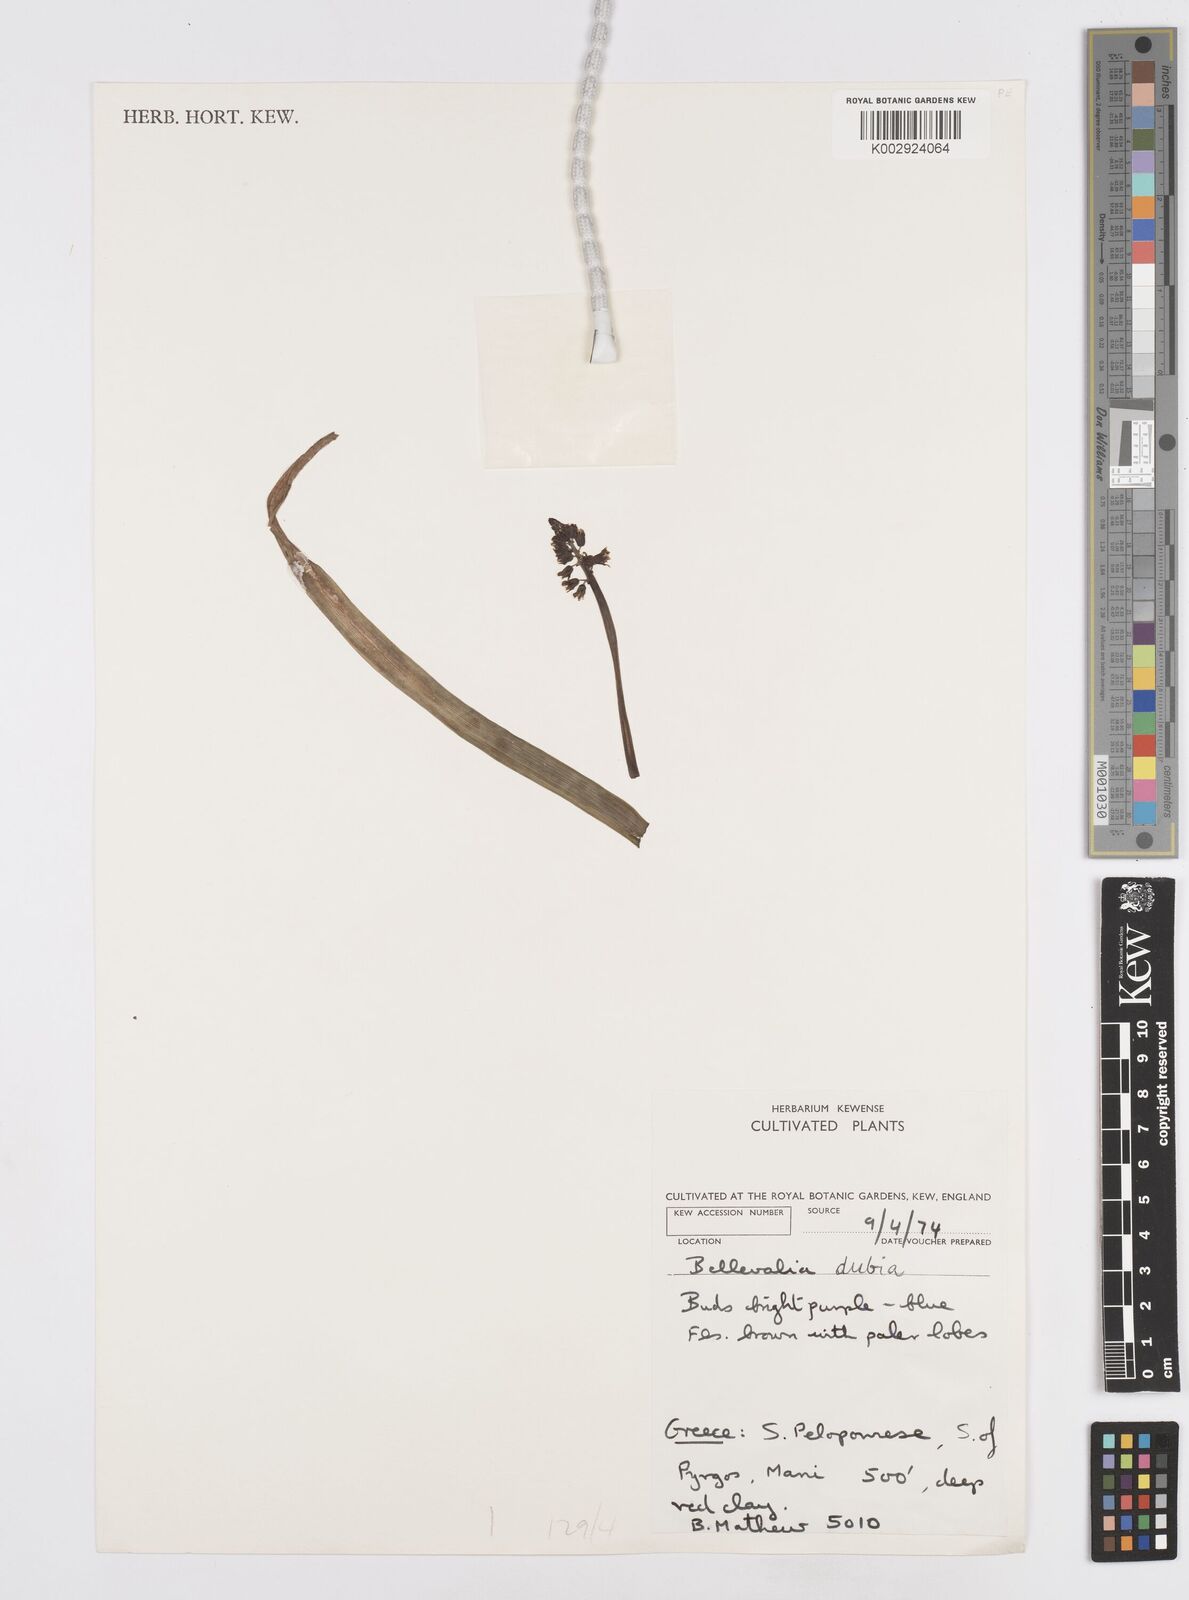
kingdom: Plantae
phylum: Tracheophyta
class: Liliopsida
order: Asparagales
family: Asparagaceae
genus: Bellevalia
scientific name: Bellevalia dubia
